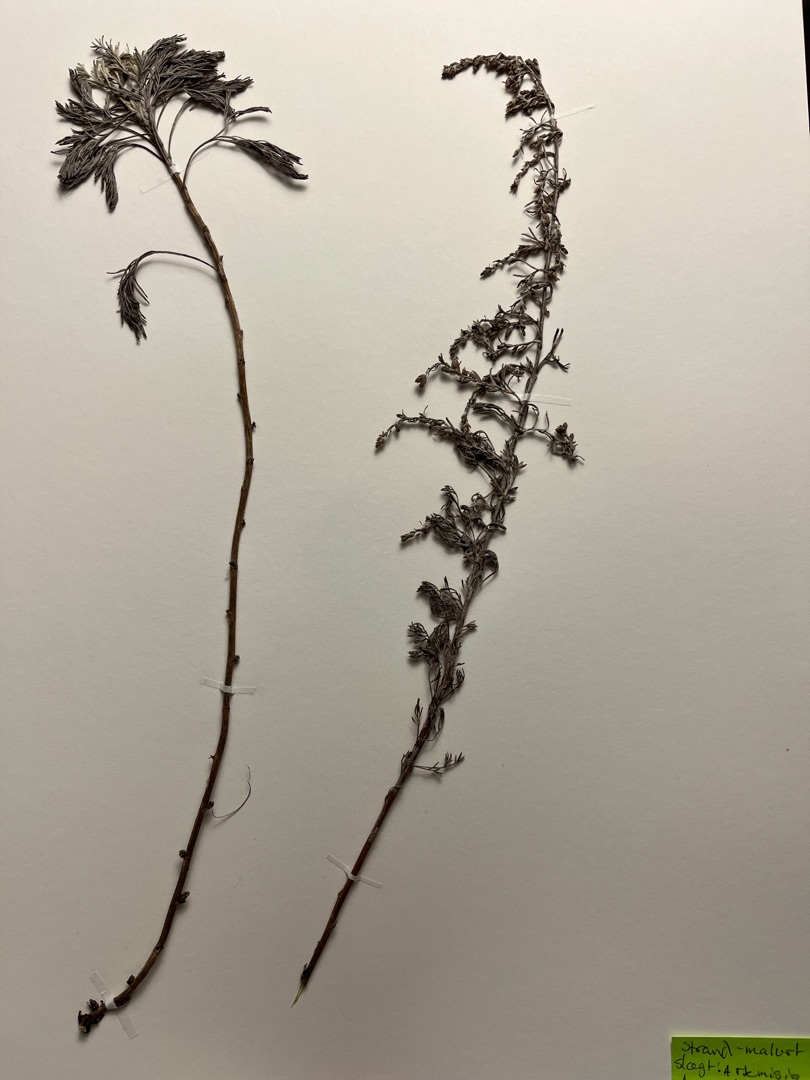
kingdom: Plantae
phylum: Tracheophyta
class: Magnoliopsida
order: Asterales
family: Asteraceae
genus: Artemisia
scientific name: Artemisia maritima
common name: Strandmalurt
